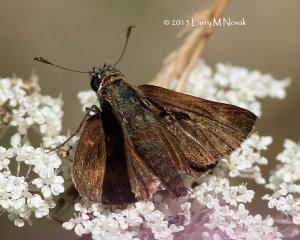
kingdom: Animalia
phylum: Arthropoda
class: Insecta
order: Lepidoptera
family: Hesperiidae
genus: Euphyes
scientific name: Euphyes vestris
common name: Dun Skipper
